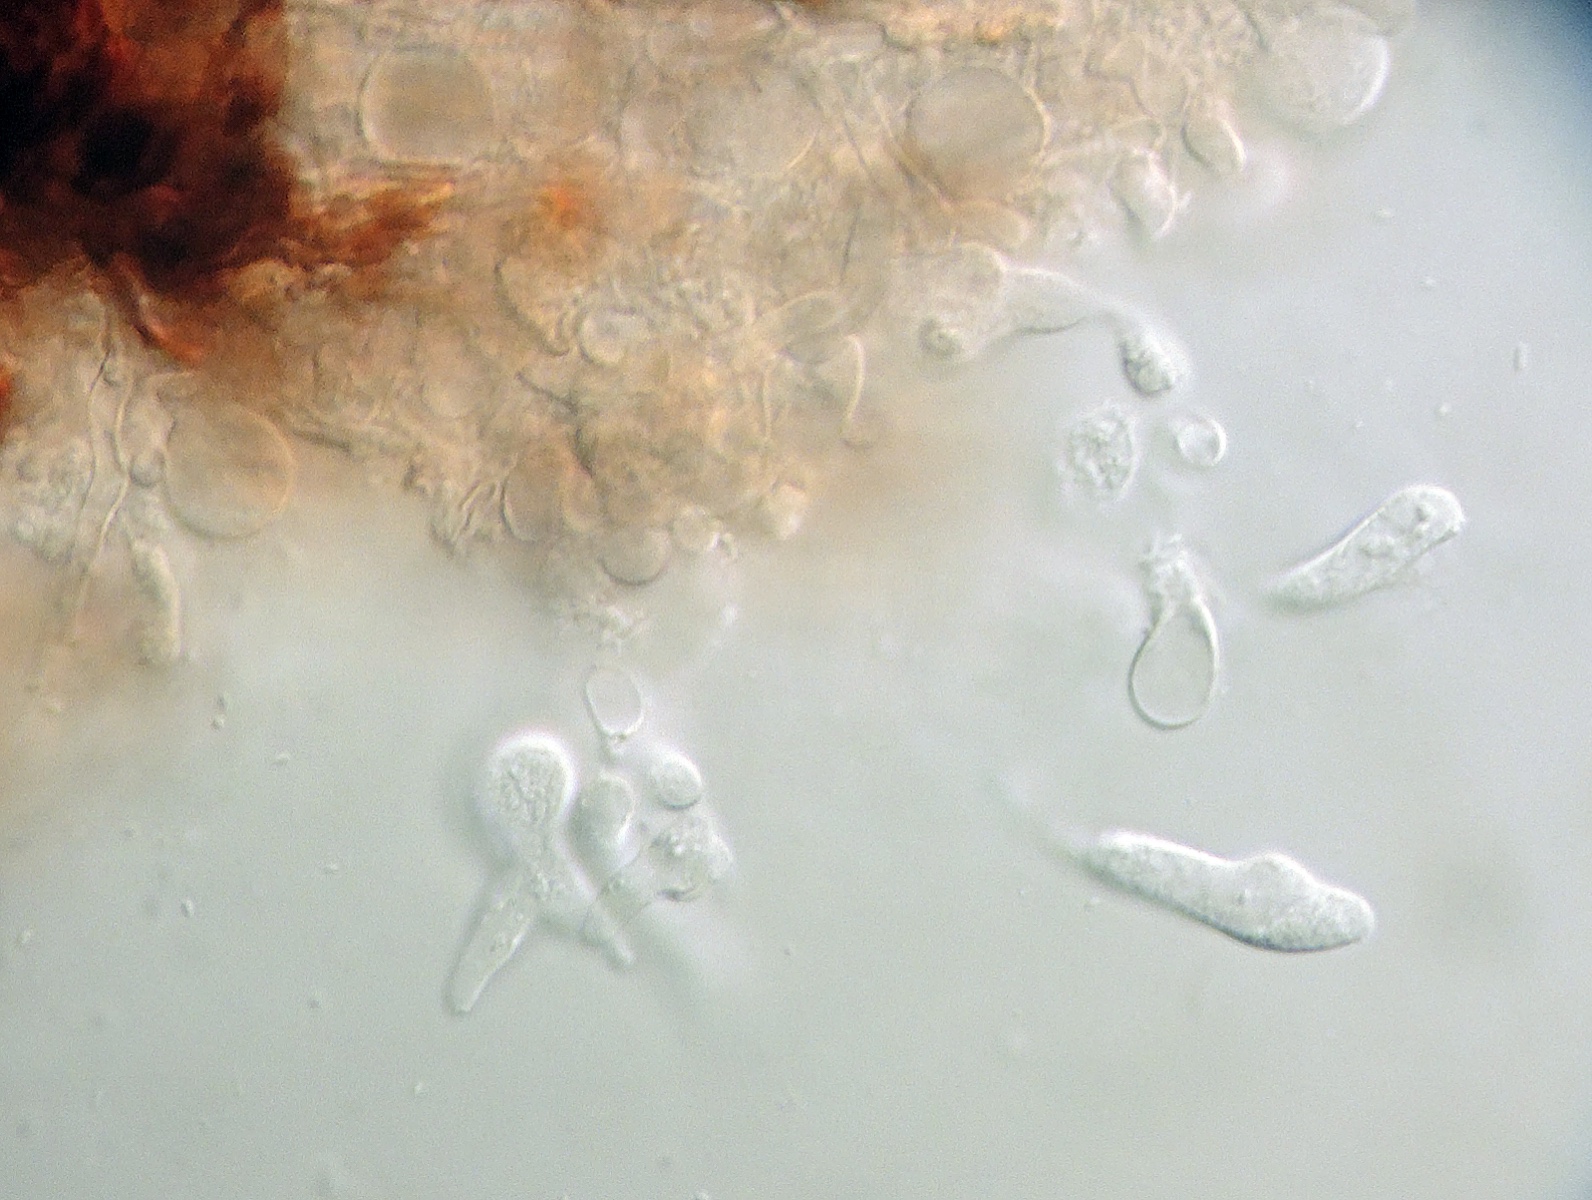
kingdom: Fungi
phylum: Basidiomycota
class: Agaricomycetes
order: Auriculariales
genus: Ceratosebacina
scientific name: Ceratosebacina calospora
